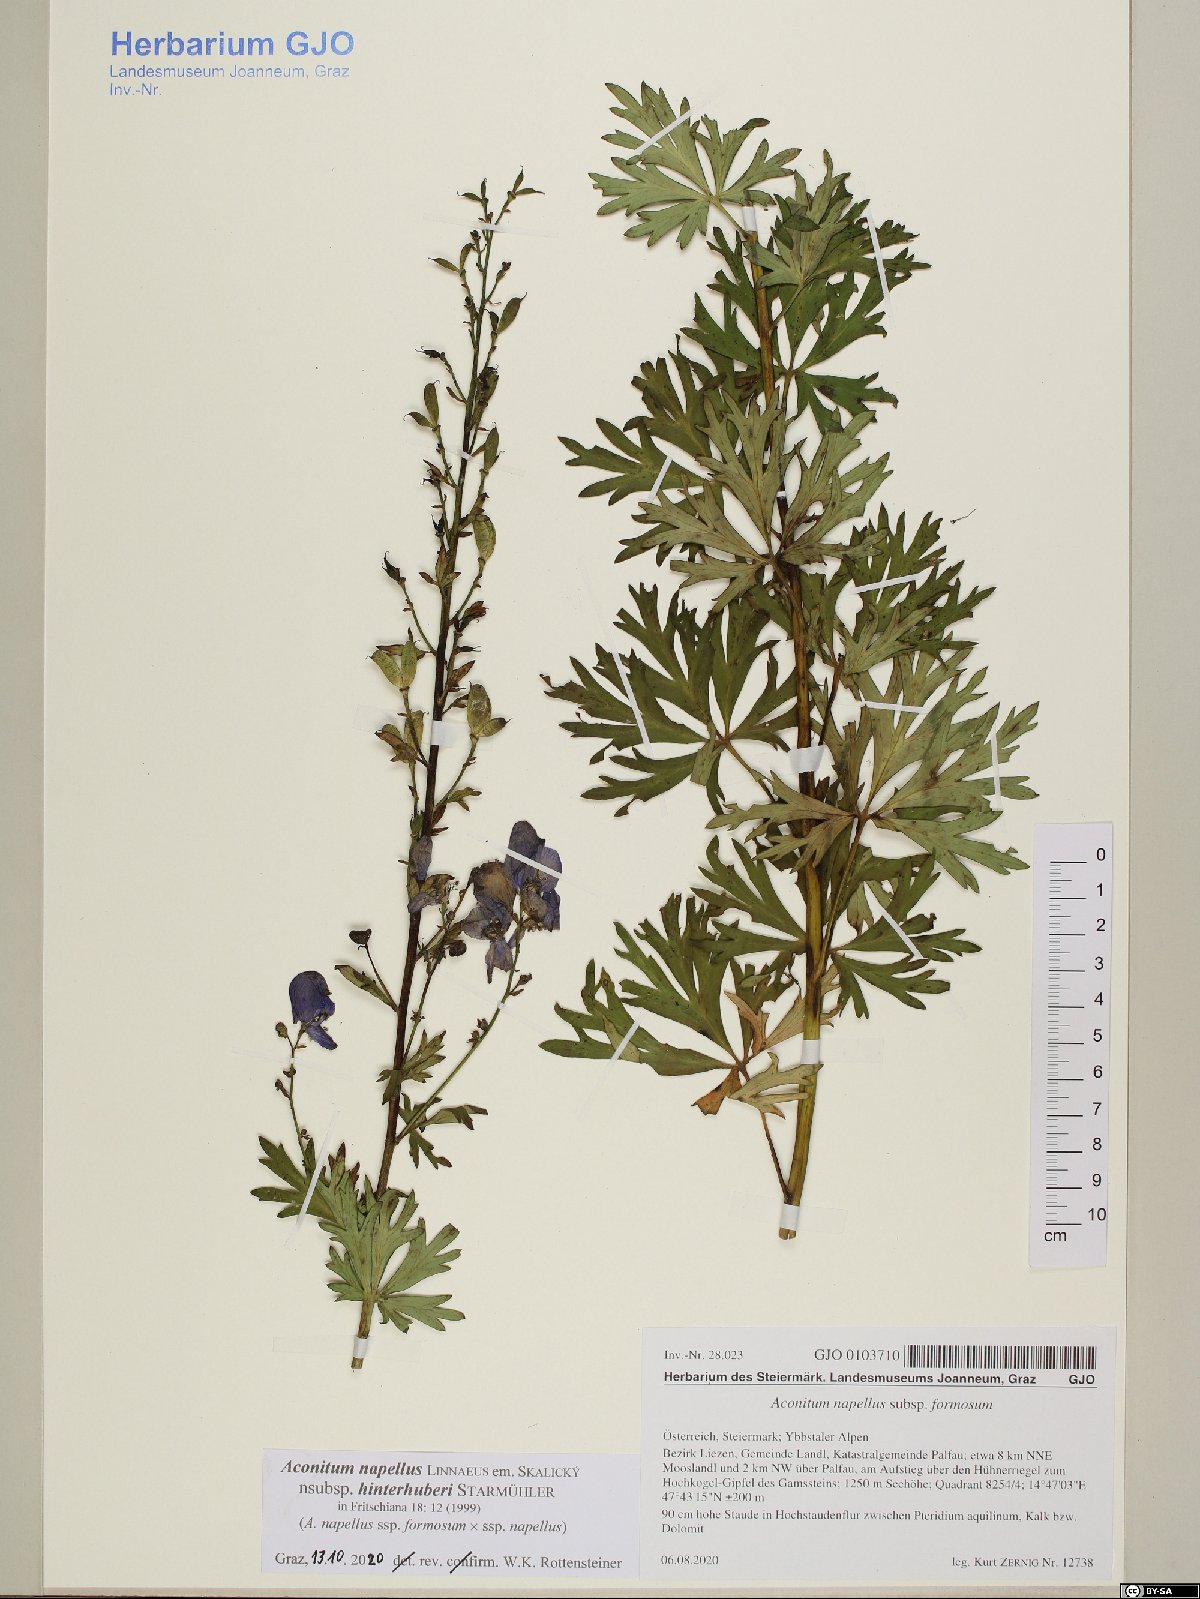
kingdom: Plantae
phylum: Tracheophyta
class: Magnoliopsida
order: Ranunculales
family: Ranunculaceae
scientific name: Ranunculaceae
